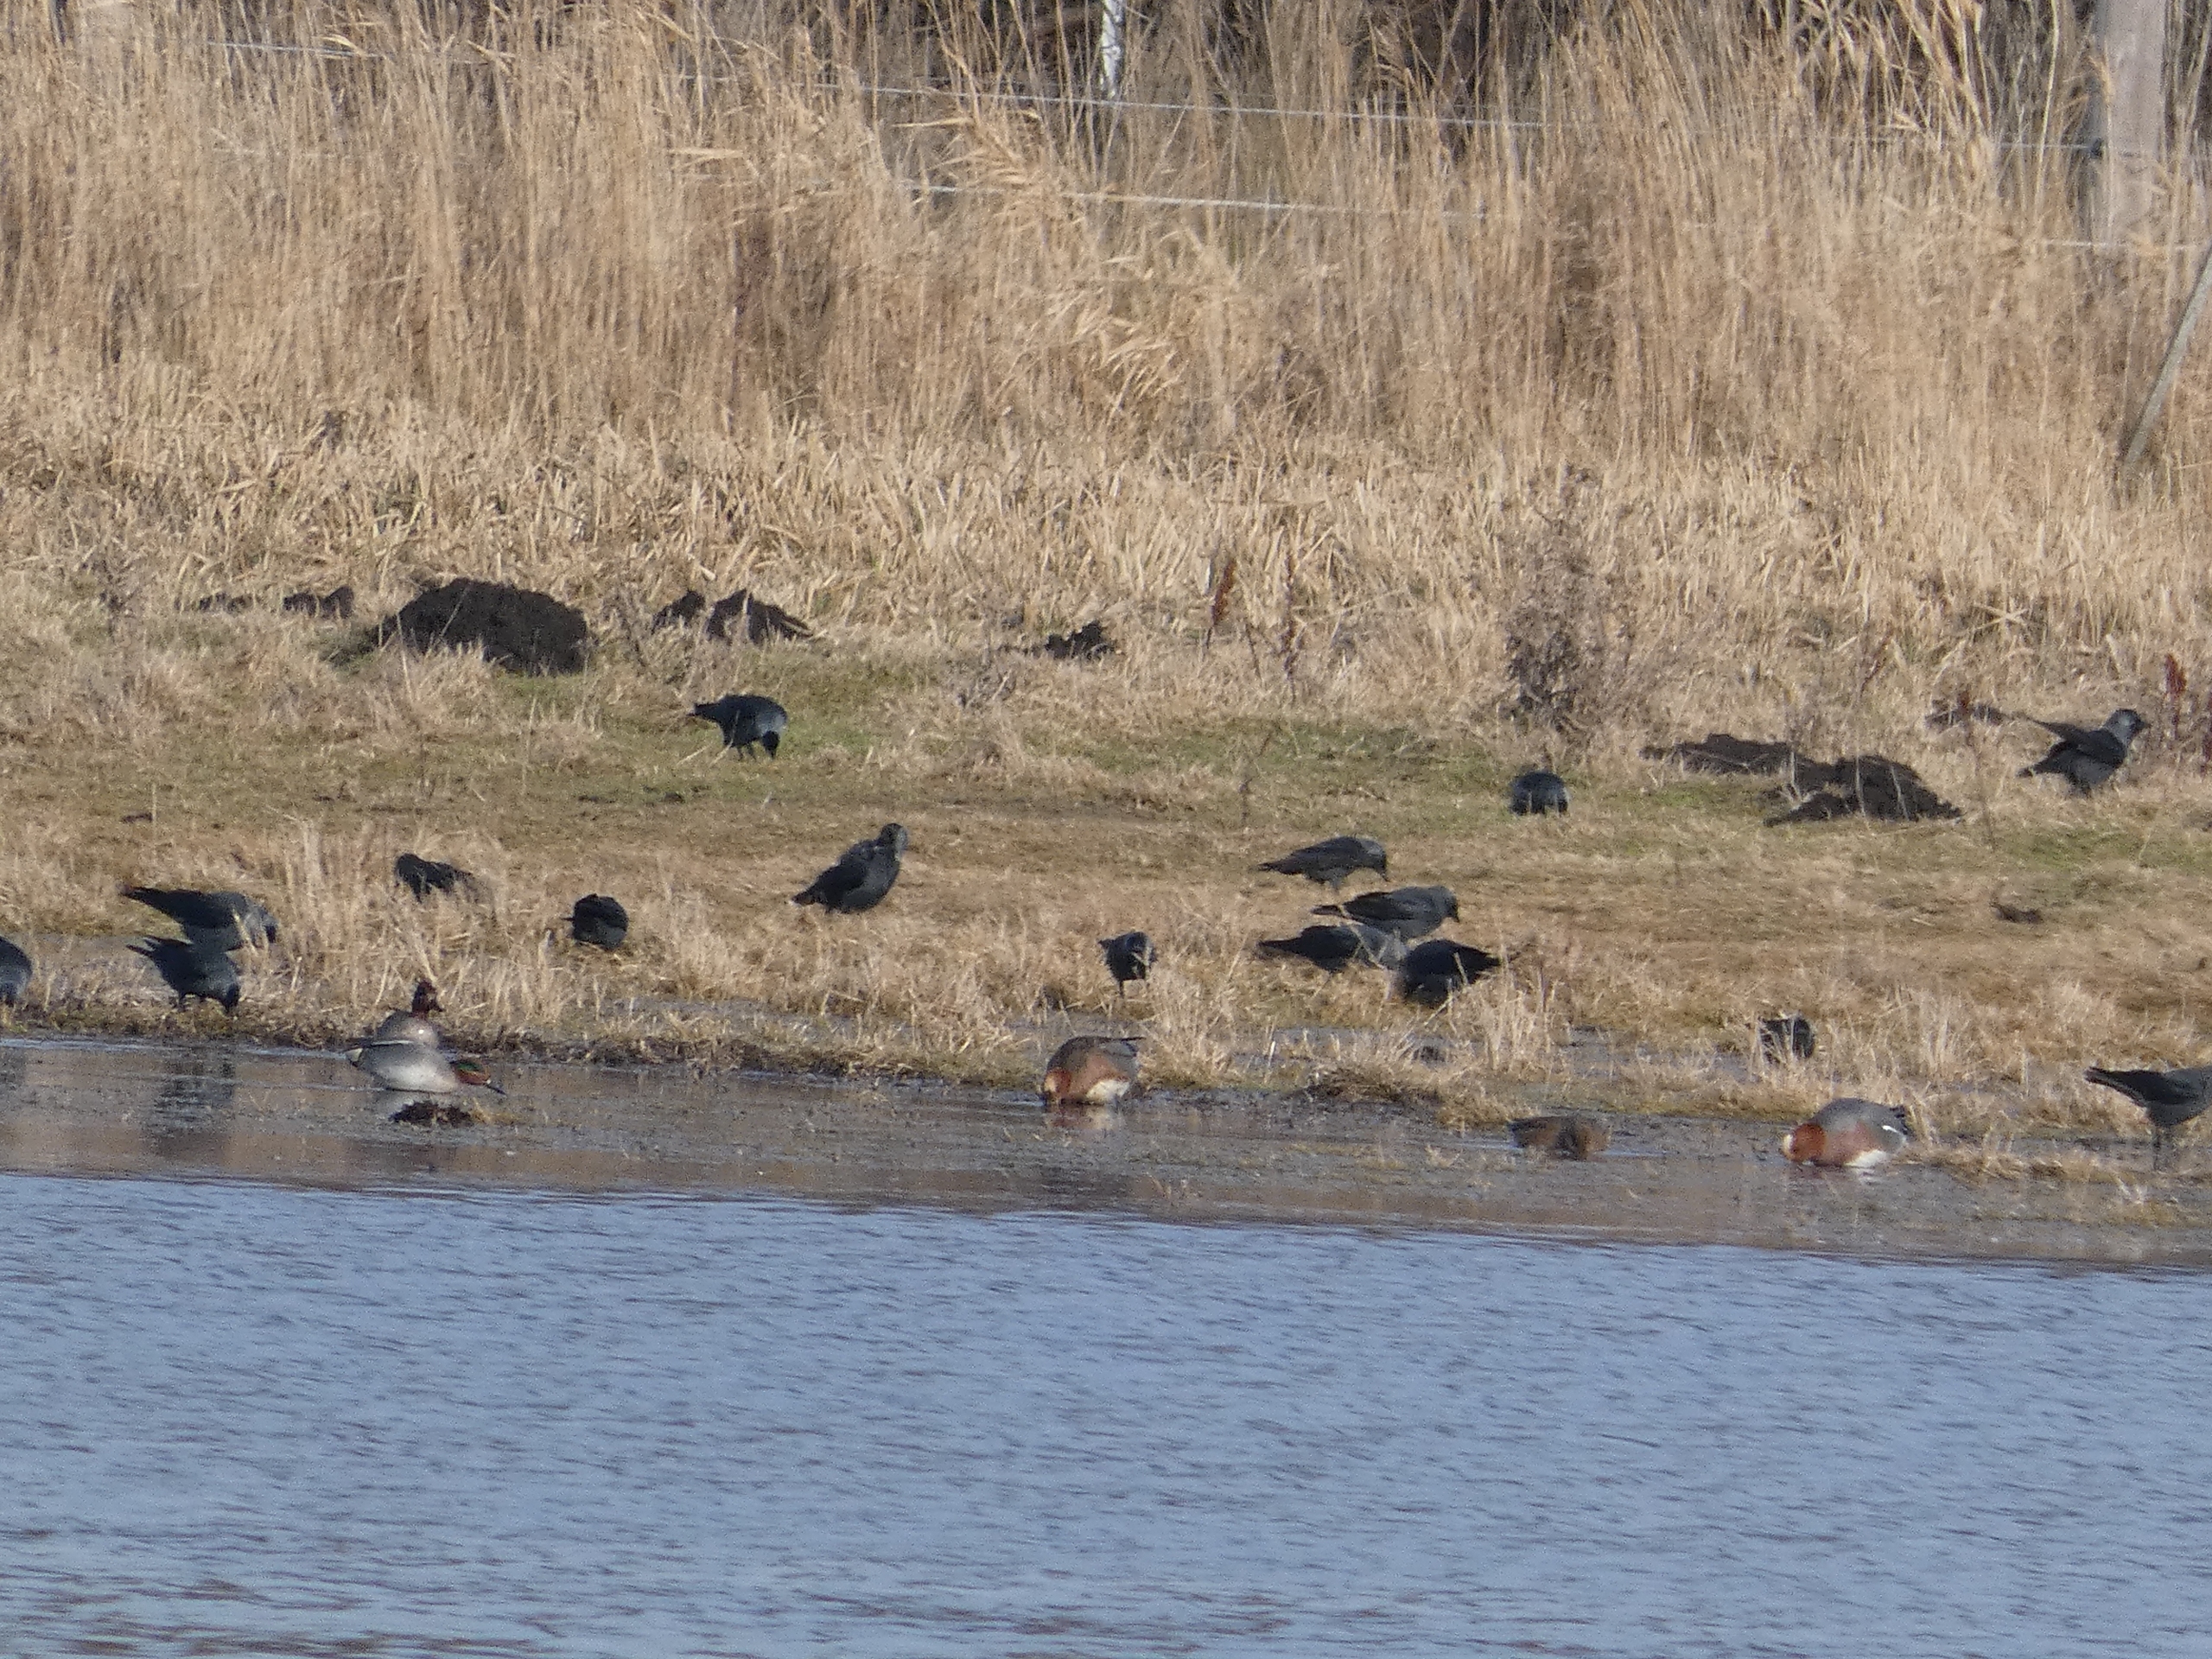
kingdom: Animalia
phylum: Chordata
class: Aves
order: Passeriformes
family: Corvidae
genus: Coloeus
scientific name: Coloeus monedula
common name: Allike
